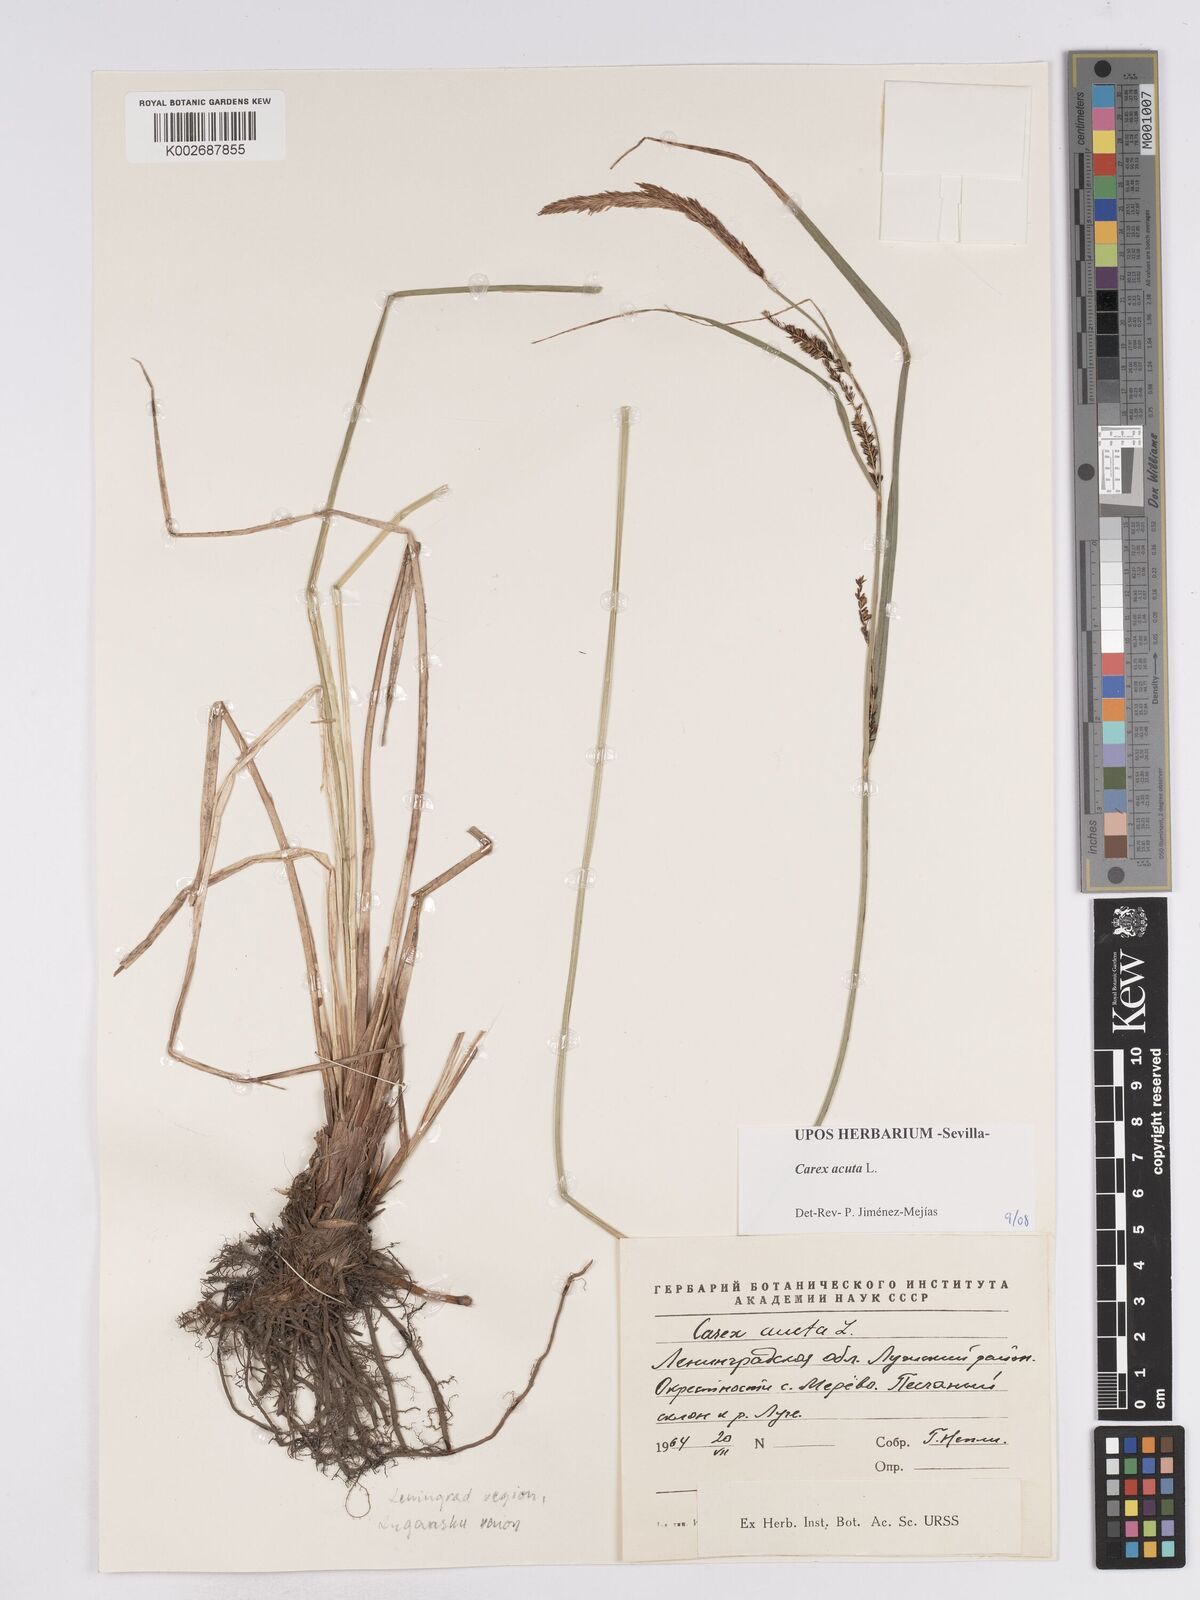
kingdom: Plantae
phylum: Tracheophyta
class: Liliopsida
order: Poales
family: Cyperaceae
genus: Carex
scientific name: Carex acuta
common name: Slender tufted-sedge
